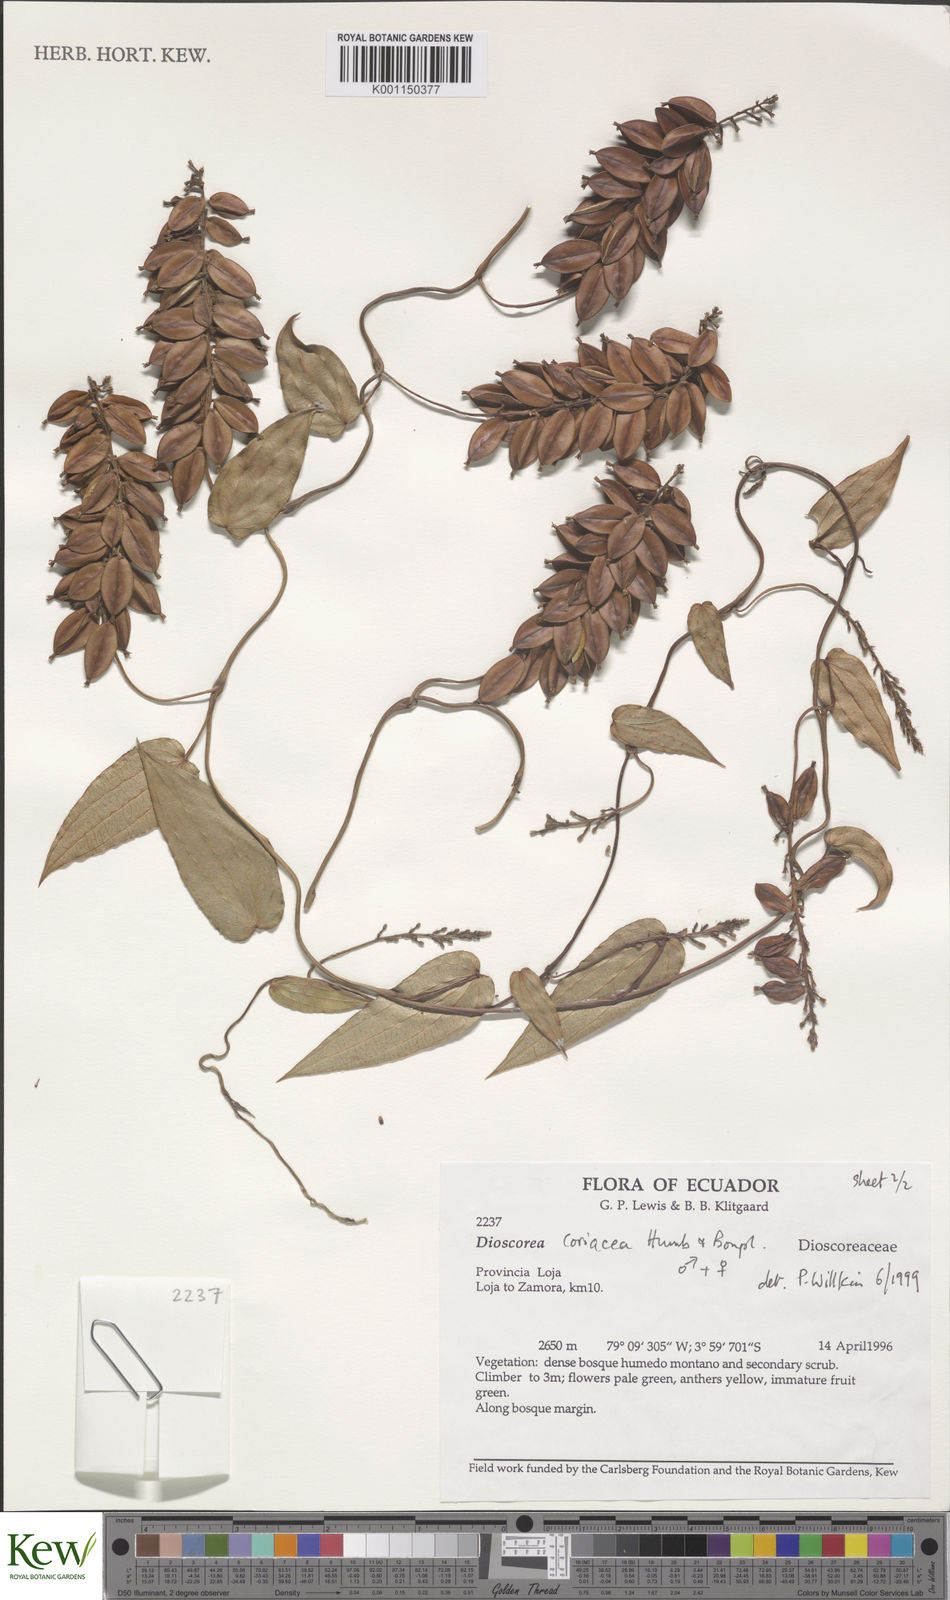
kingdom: Plantae
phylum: Tracheophyta
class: Liliopsida
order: Dioscoreales
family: Dioscoreaceae
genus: Dioscorea
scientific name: Dioscorea coriacea
